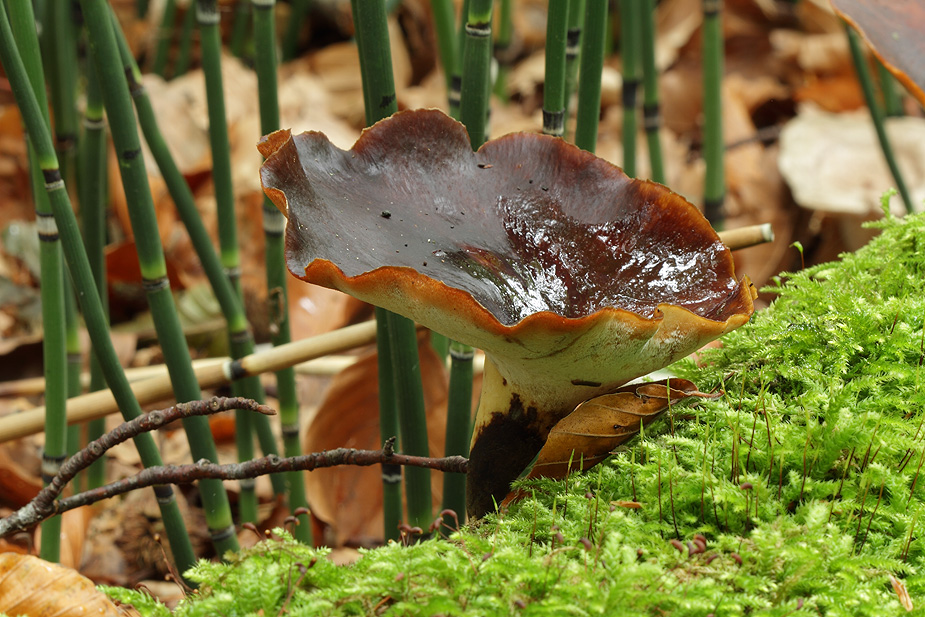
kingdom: Fungi
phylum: Basidiomycota
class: Agaricomycetes
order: Polyporales
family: Polyporaceae
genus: Picipes
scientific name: Picipes badius
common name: kastaniebrun stilkporesvamp
